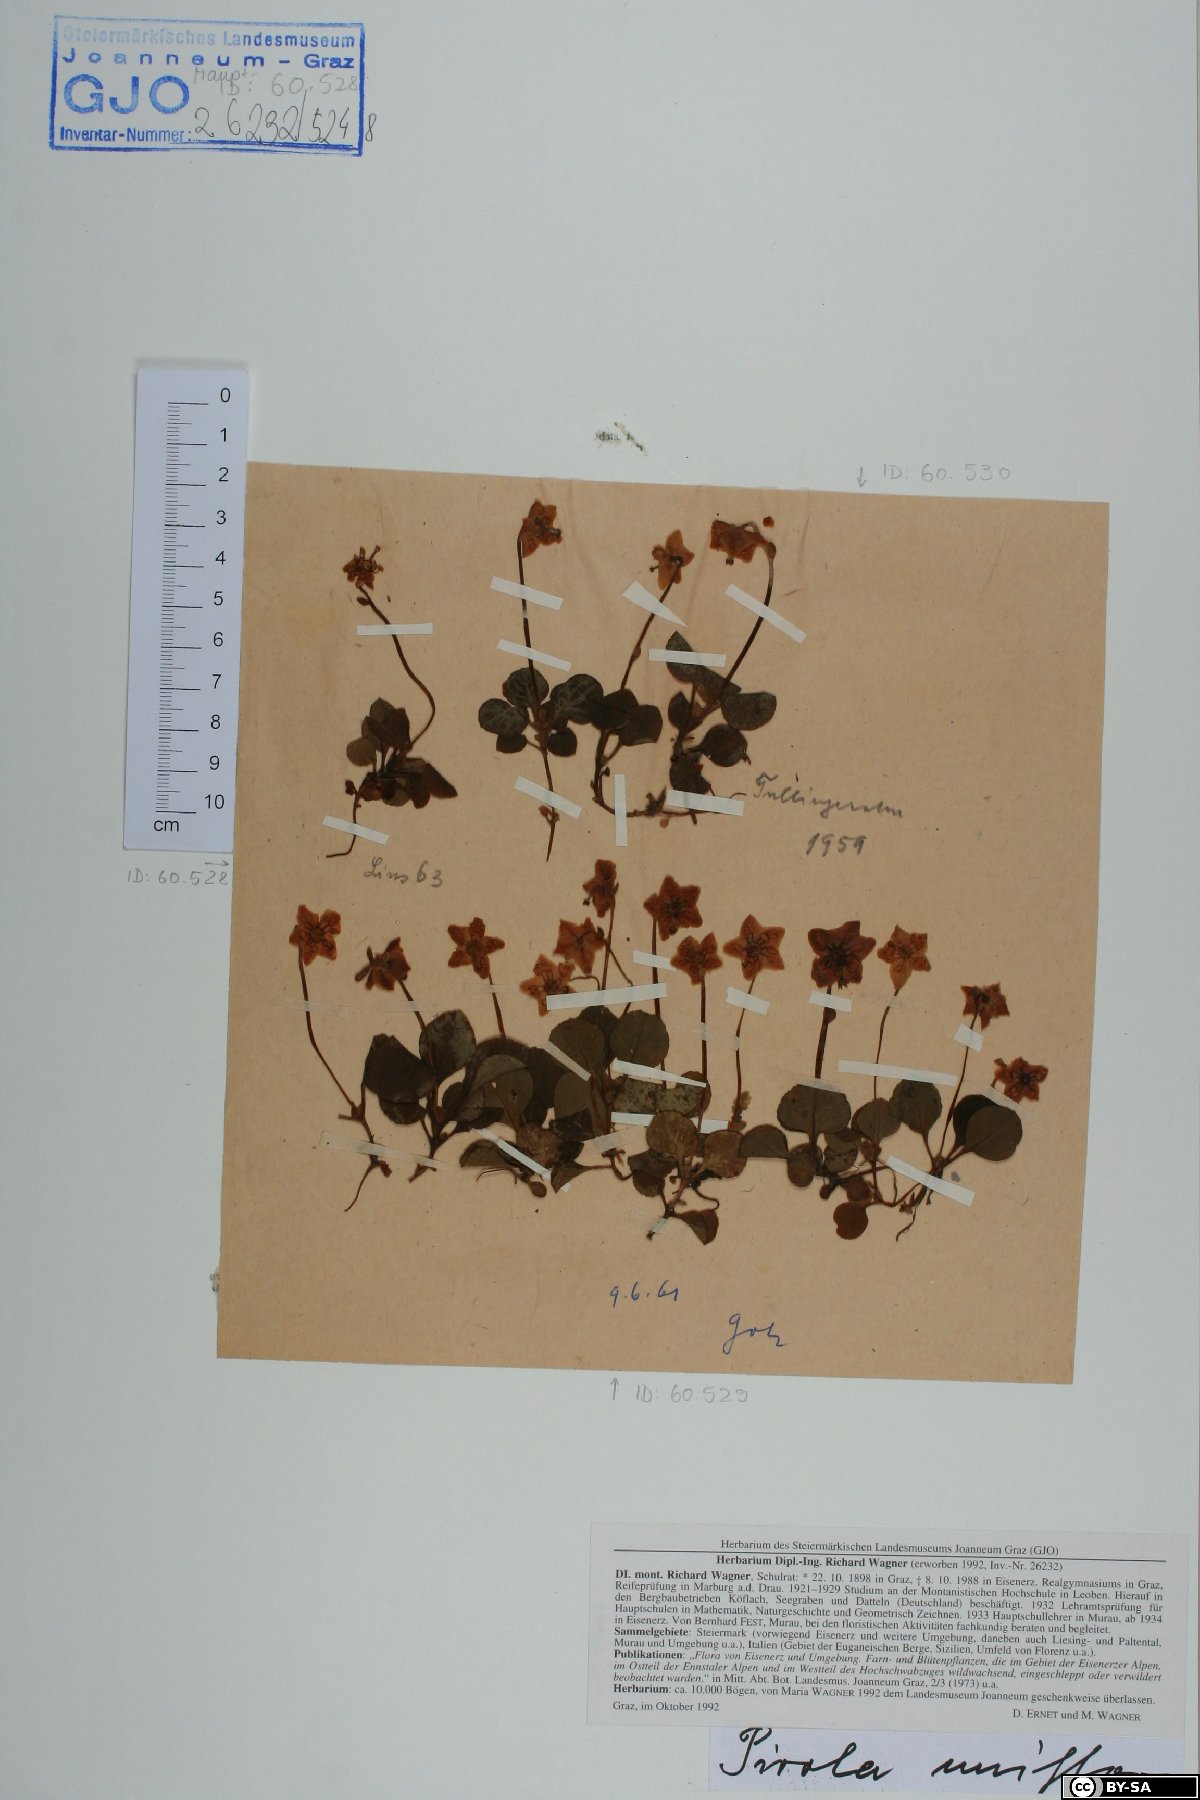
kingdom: Plantae
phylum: Tracheophyta
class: Magnoliopsida
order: Ericales
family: Ericaceae
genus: Moneses
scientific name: Moneses uniflora
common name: One-flowered wintergreen
